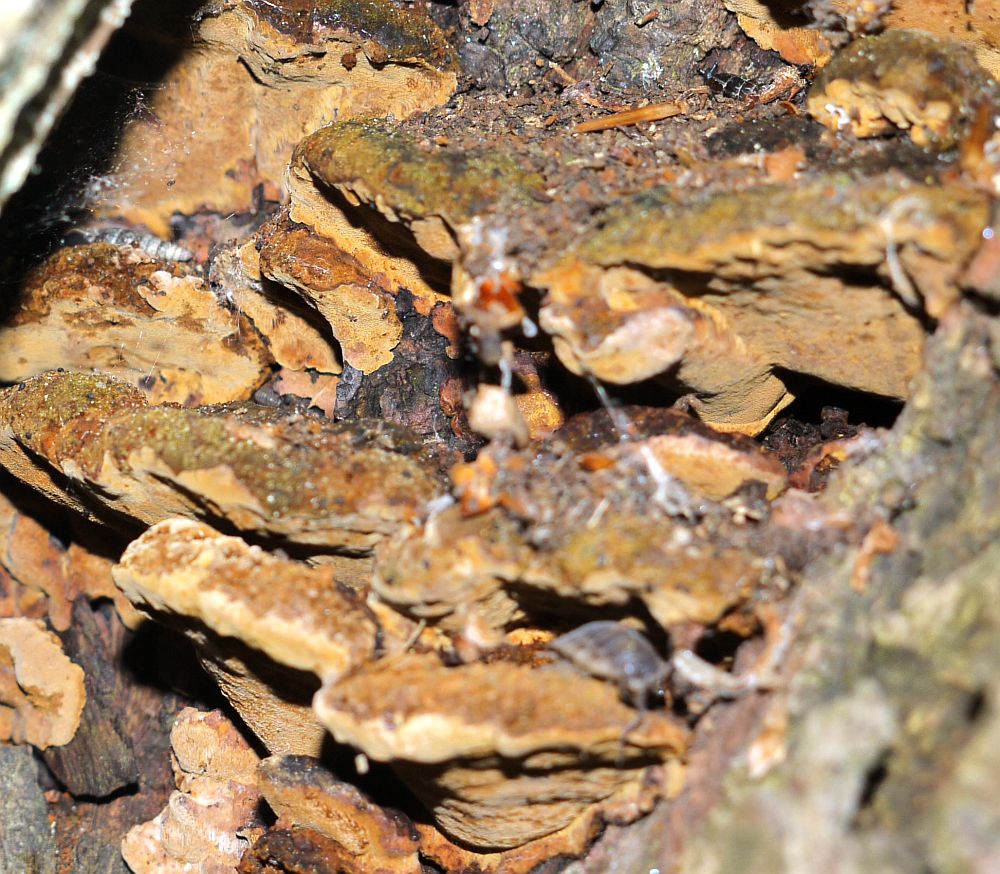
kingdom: Fungi
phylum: Basidiomycota
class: Agaricomycetes
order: Hymenochaetales
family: Hymenochaetaceae
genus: Phellinopsis
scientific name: Phellinopsis conchata
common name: pile-ildporesvamp
